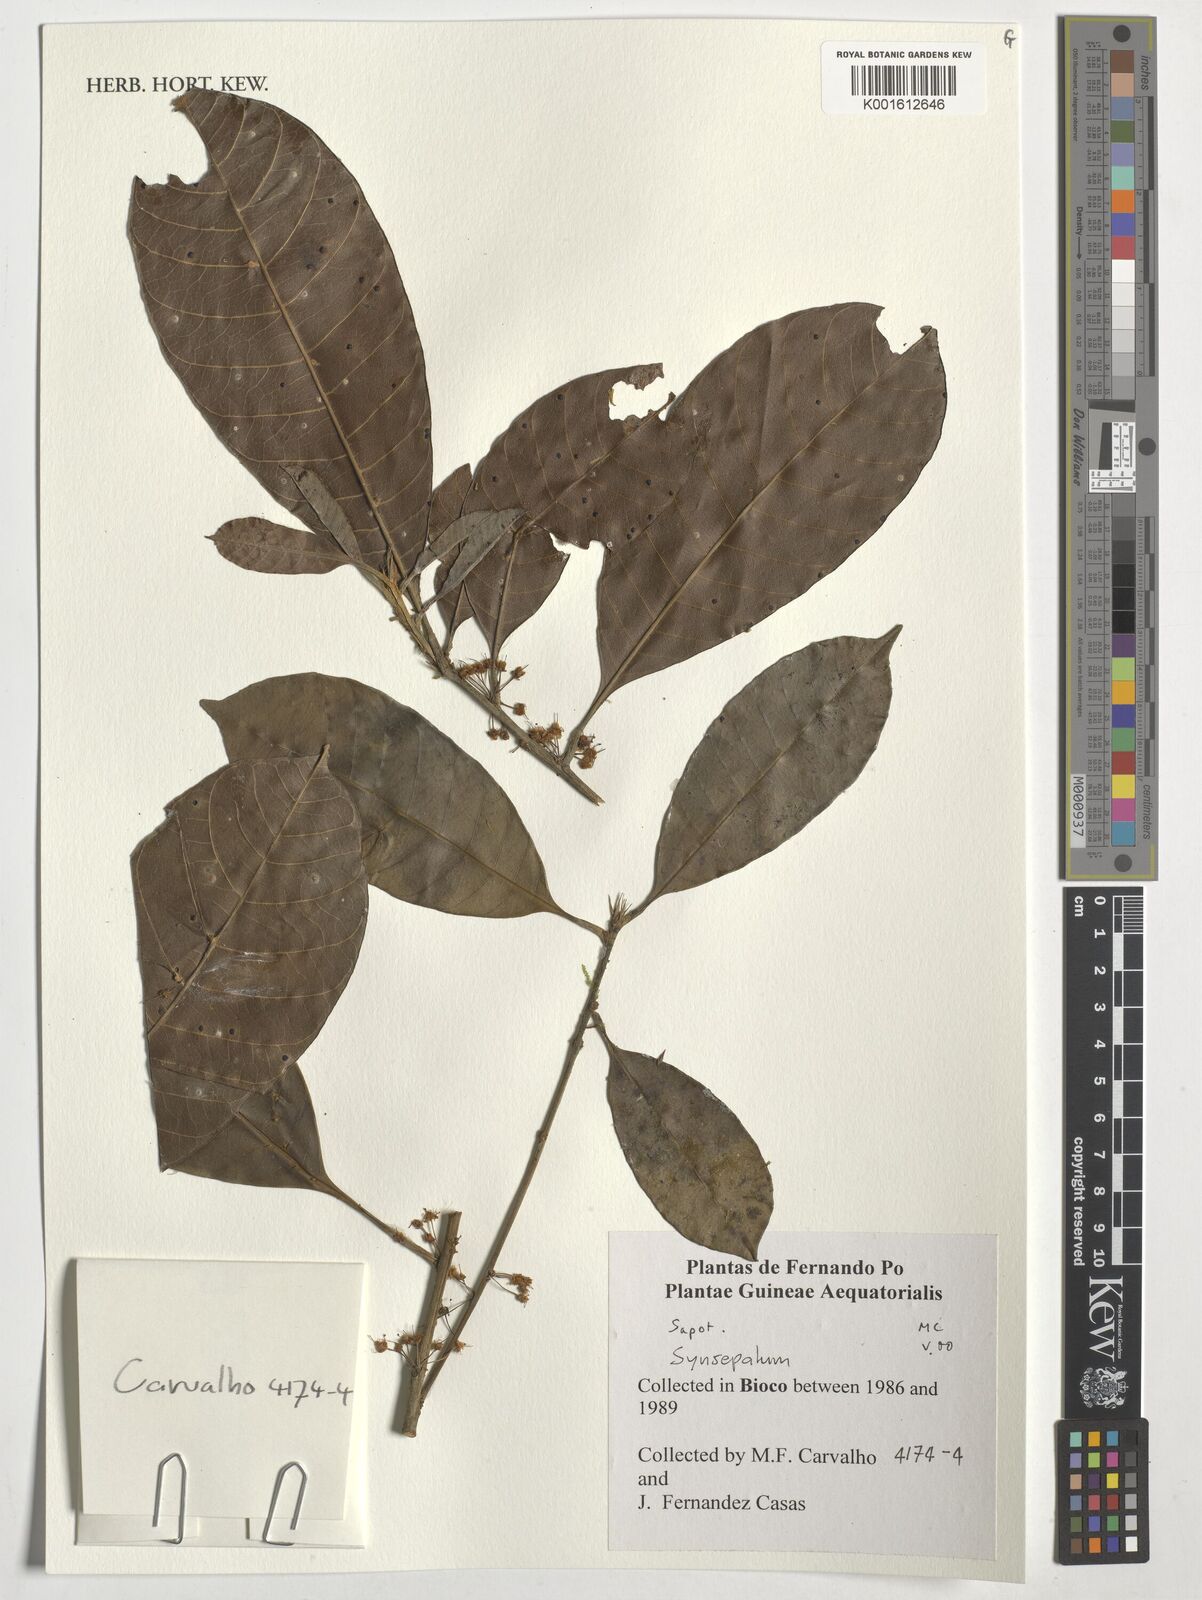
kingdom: Plantae
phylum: Tracheophyta
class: Magnoliopsida
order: Ericales
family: Sapotaceae
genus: Synsepalum
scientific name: Synsepalum
